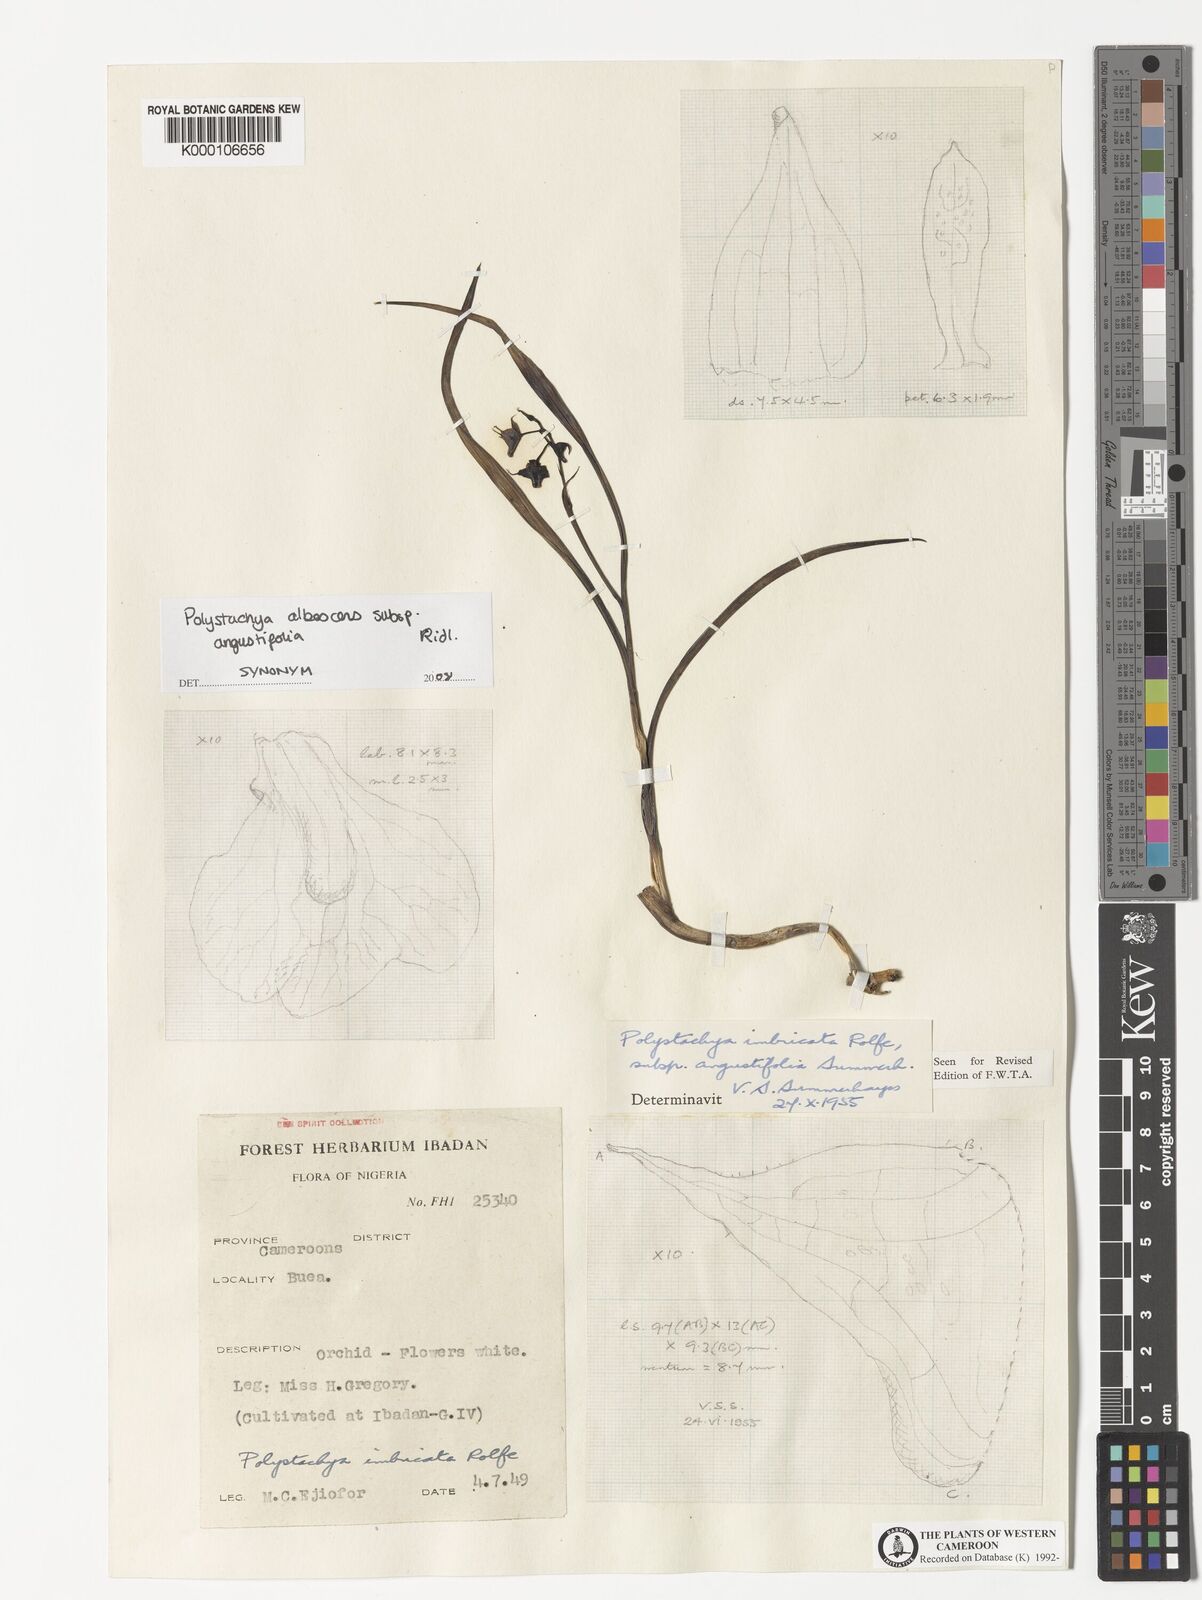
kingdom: Plantae
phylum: Tracheophyta
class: Liliopsida
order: Asparagales
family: Orchidaceae
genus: Polystachya
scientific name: Polystachya albescens
